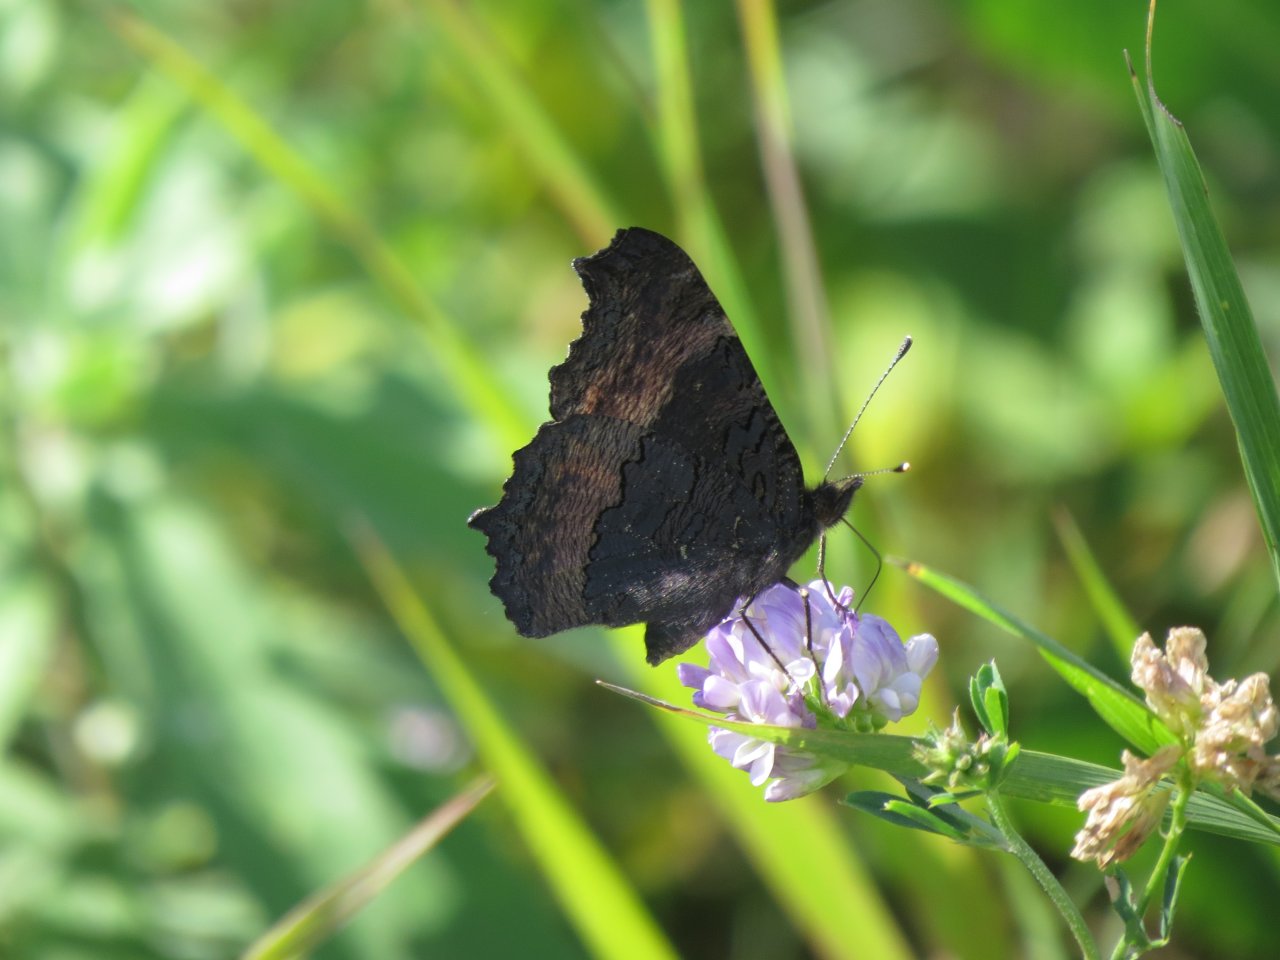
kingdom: Animalia
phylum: Arthropoda
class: Insecta
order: Lepidoptera
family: Nymphalidae
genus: Aglais
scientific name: Aglais milberti
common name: Milbert's Tortoiseshell
